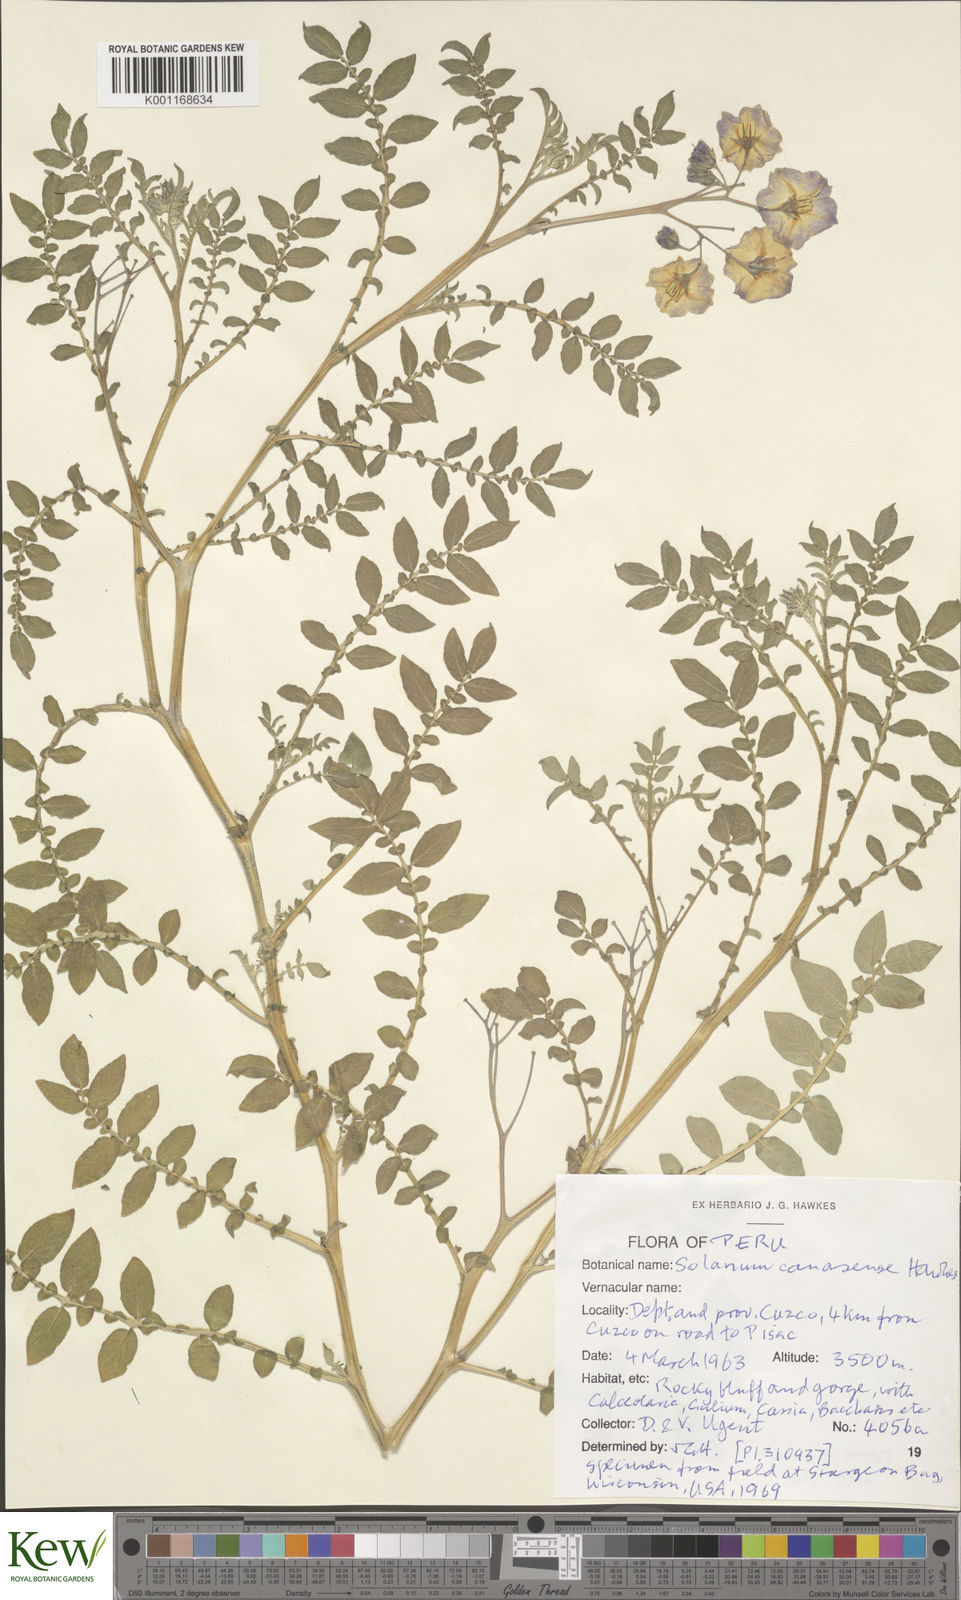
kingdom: Plantae
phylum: Tracheophyta
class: Magnoliopsida
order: Solanales
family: Solanaceae
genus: Solanum
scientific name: Solanum candolleanum
